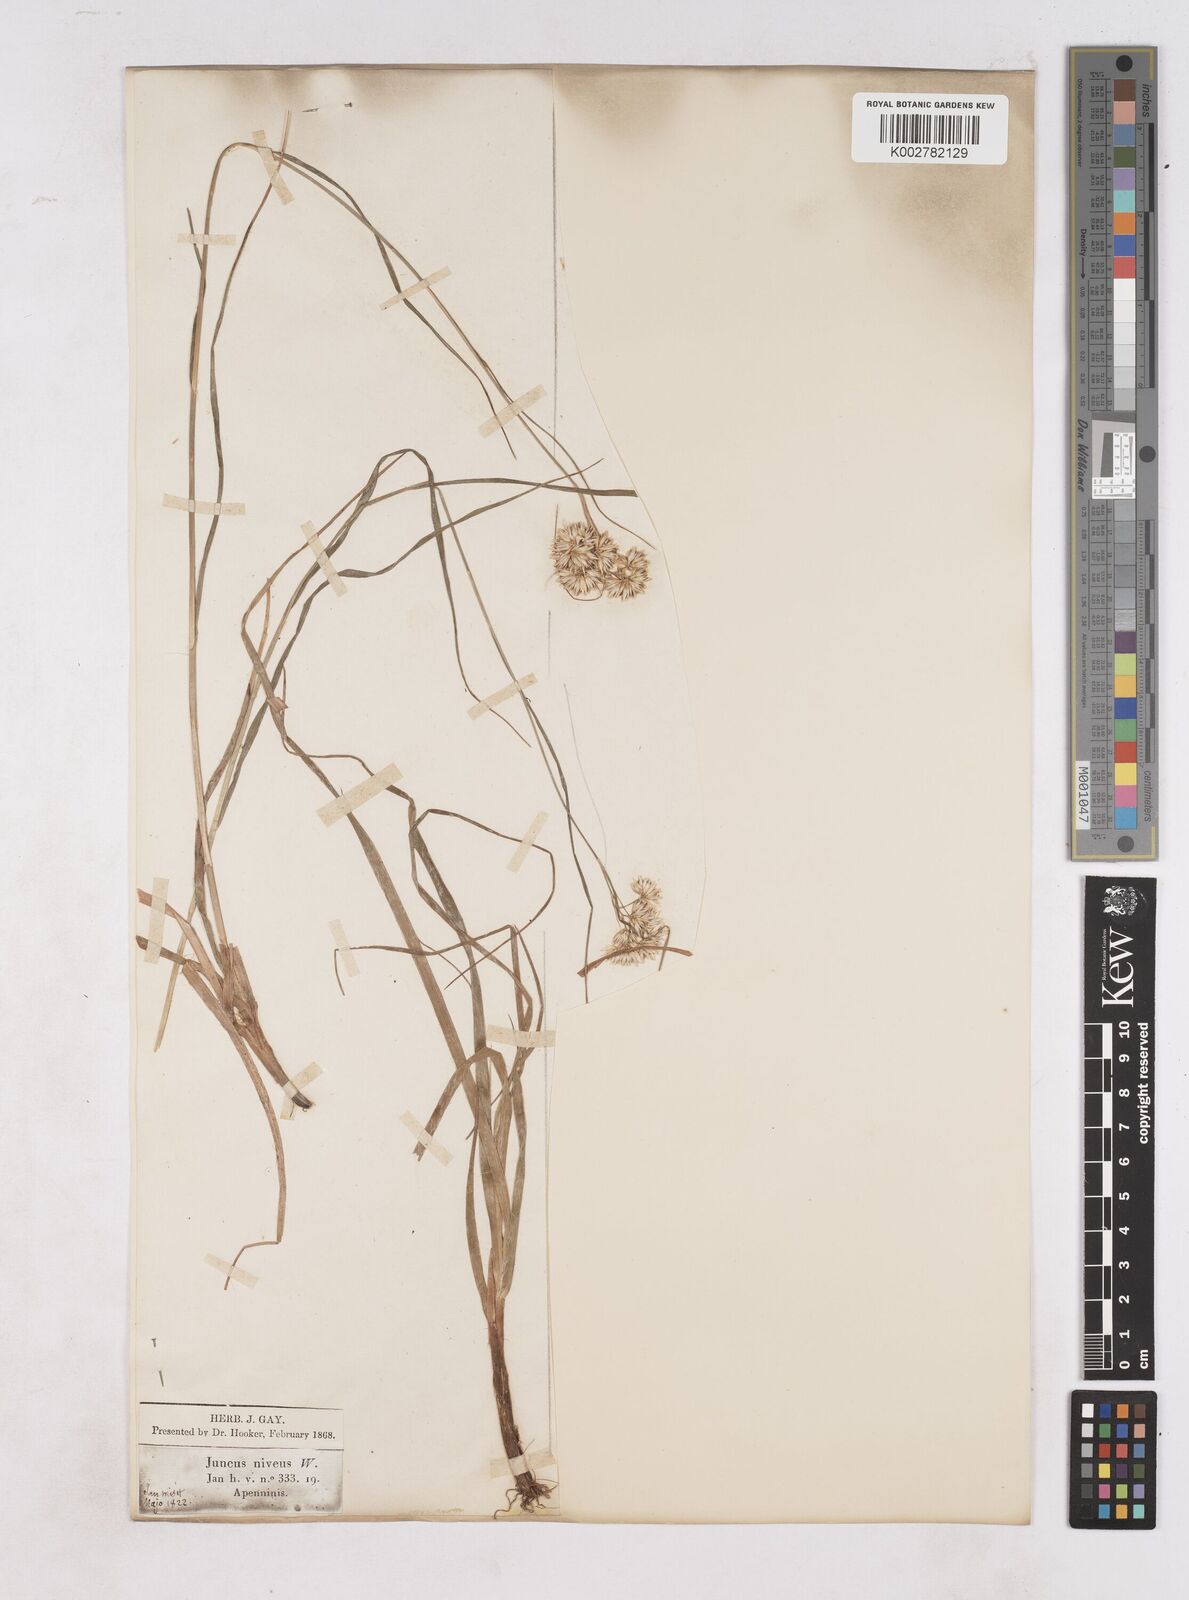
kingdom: Plantae
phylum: Tracheophyta
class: Liliopsida
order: Poales
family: Juncaceae
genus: Luzula
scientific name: Luzula nivea
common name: Snow-white wood-rush
